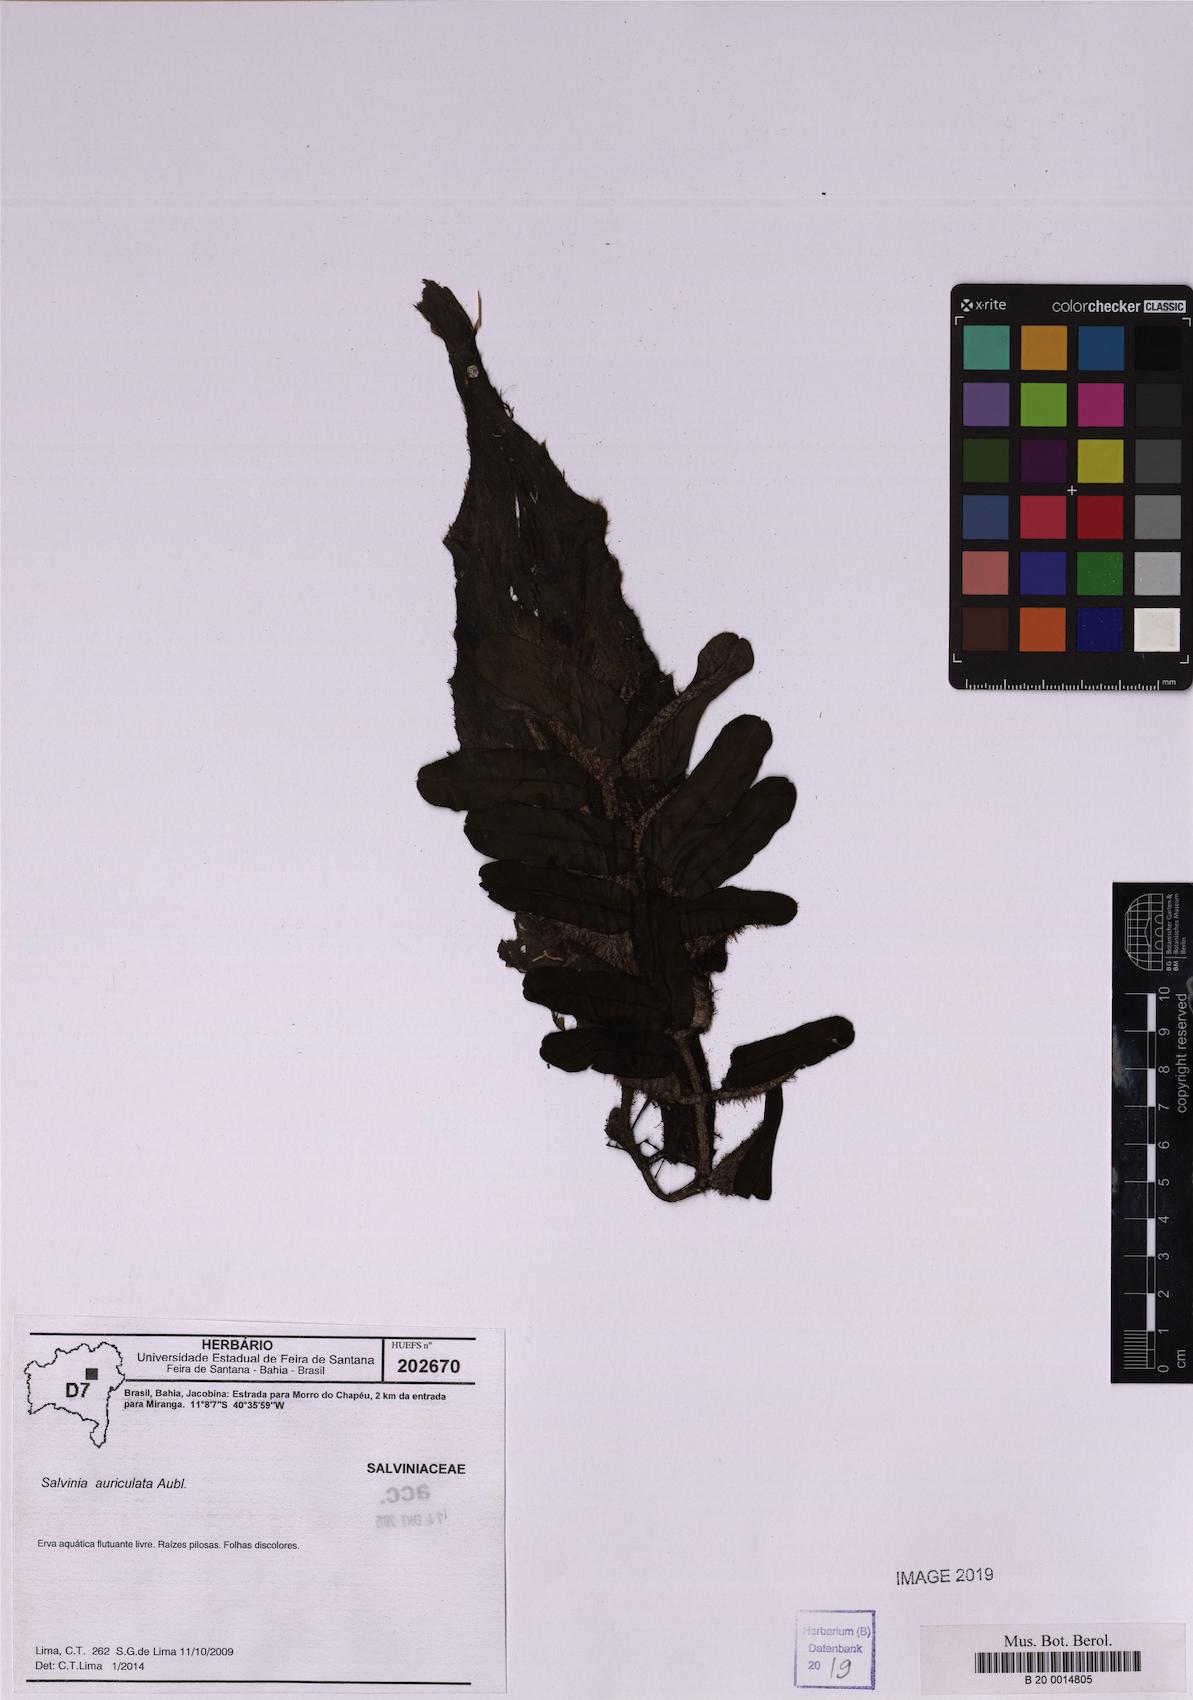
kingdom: Plantae
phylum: Tracheophyta
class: Polypodiopsida
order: Salviniales
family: Salviniaceae
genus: Salvinia
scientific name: Salvinia auriculata
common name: African payal
